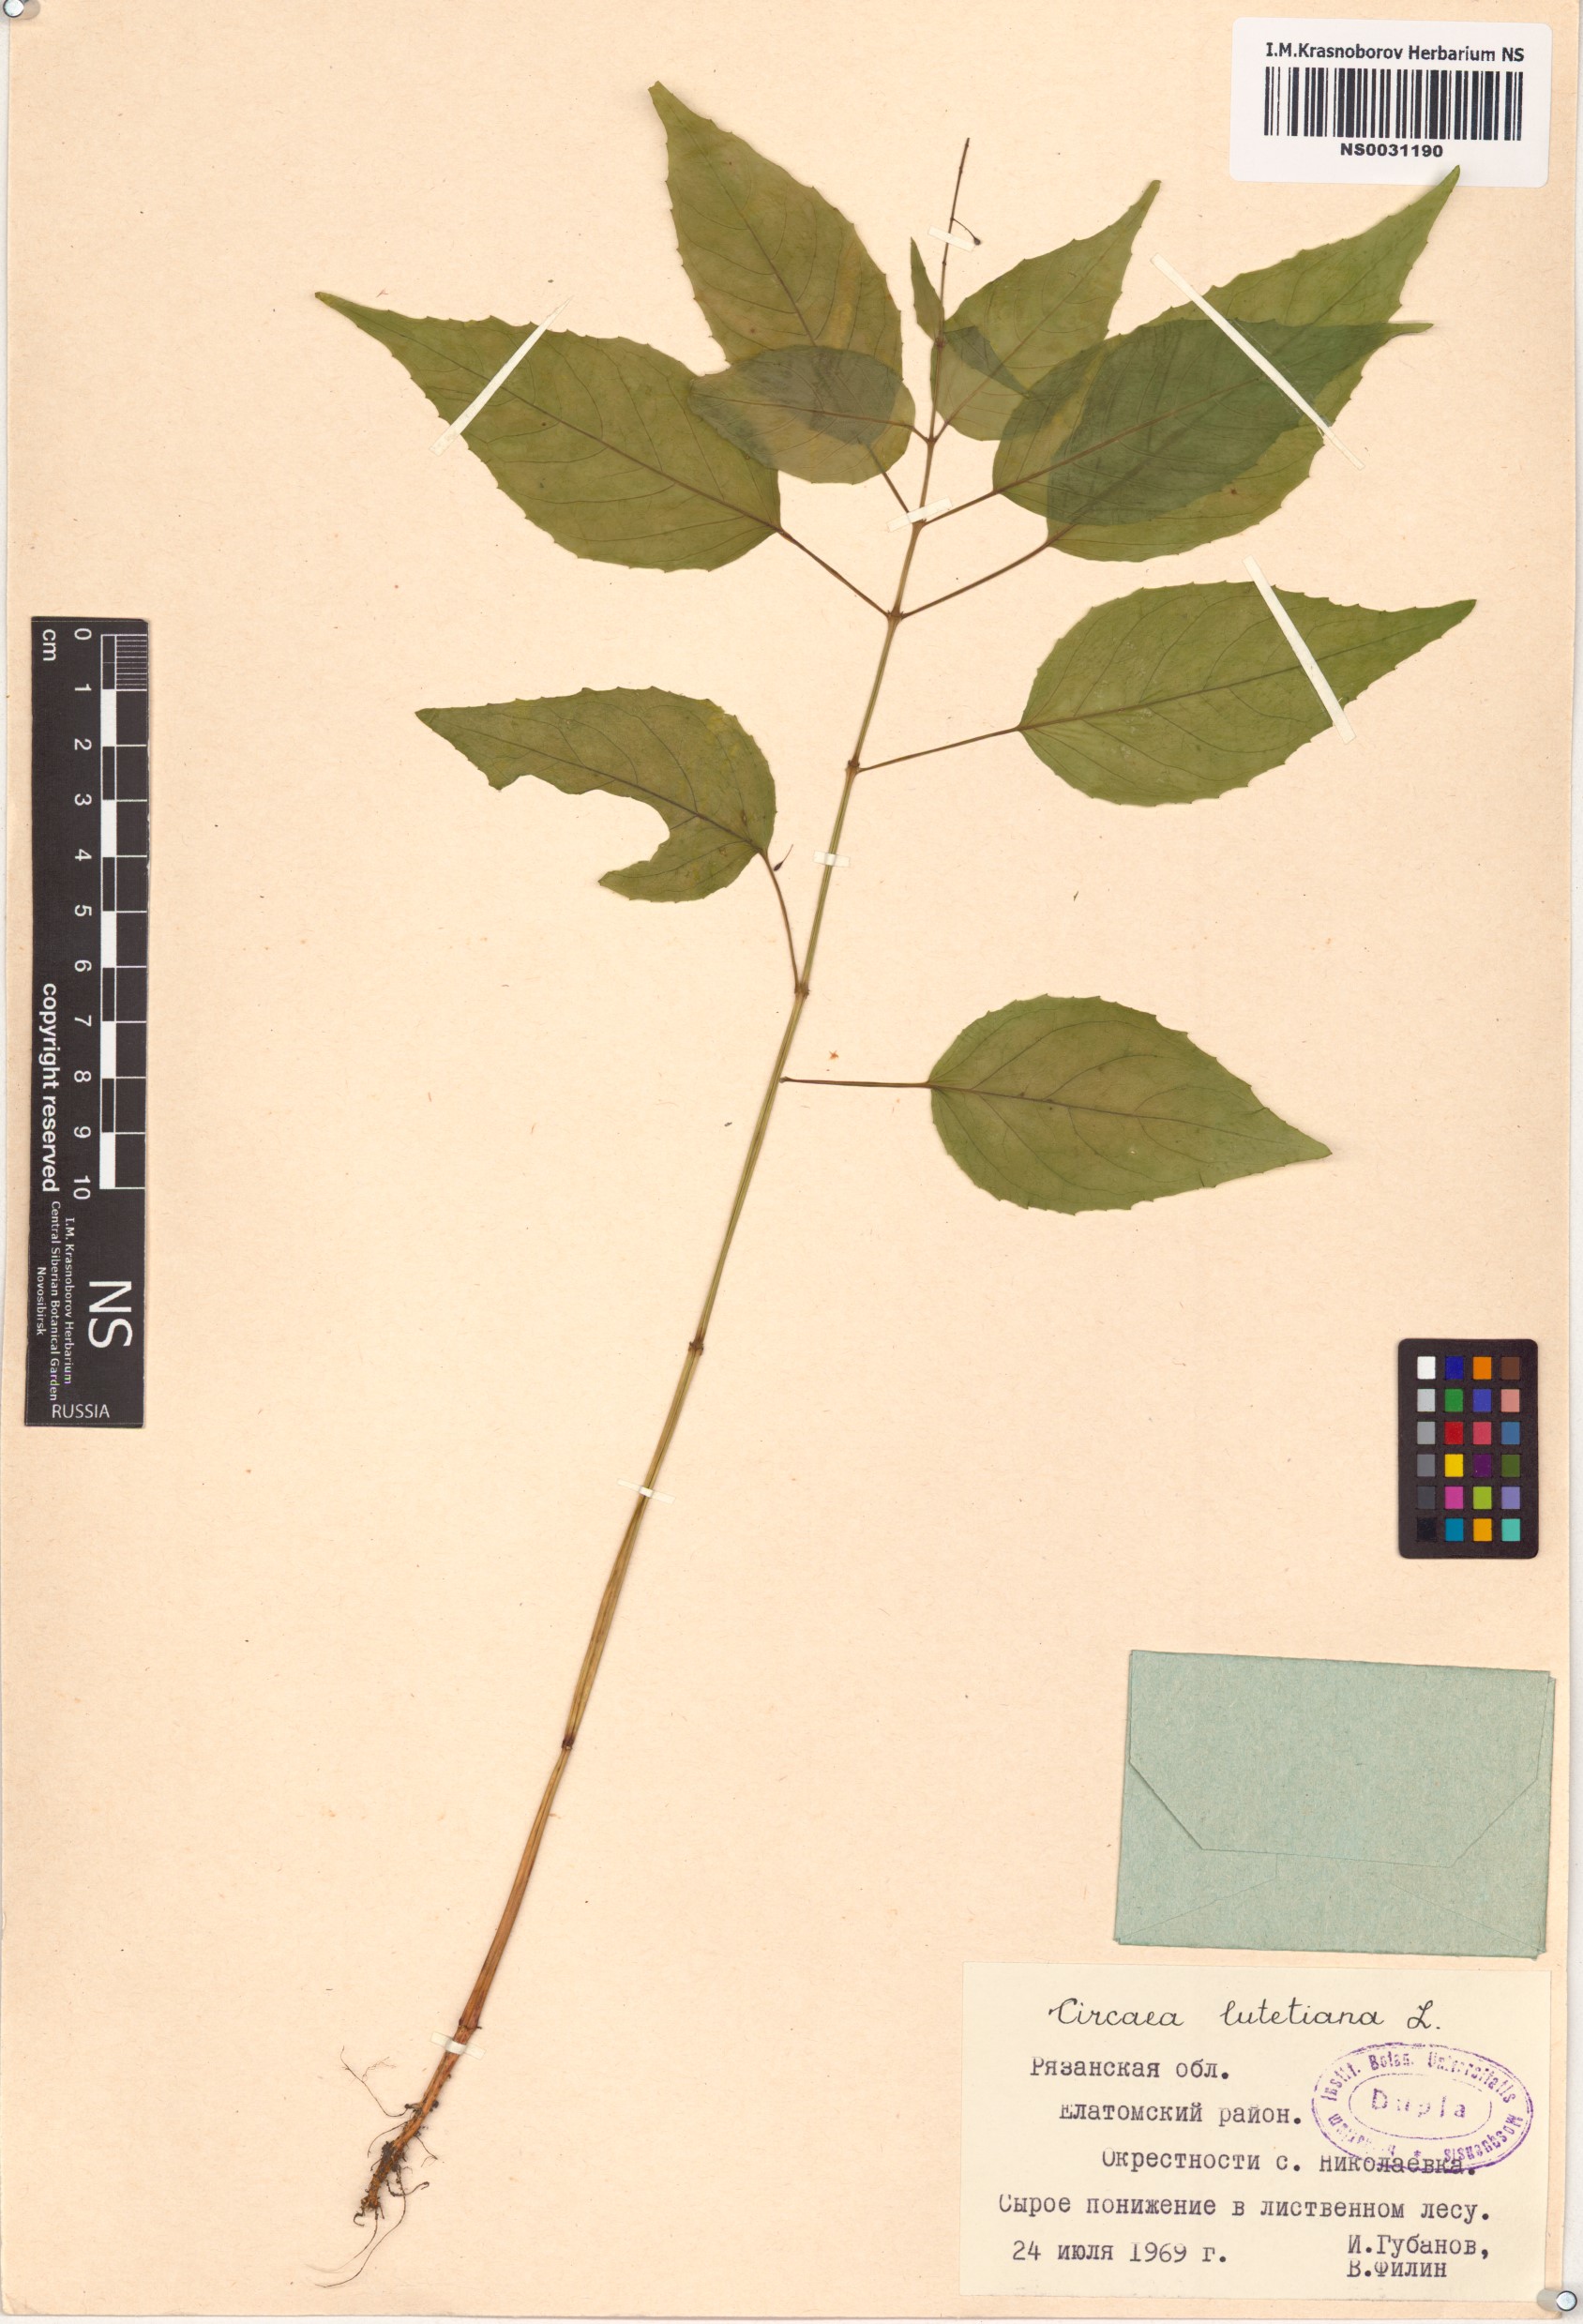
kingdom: Plantae
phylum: Tracheophyta
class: Magnoliopsida
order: Myrtales
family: Onagraceae
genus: Circaea
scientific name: Circaea lutetiana
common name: Enchanter's-nightshade
